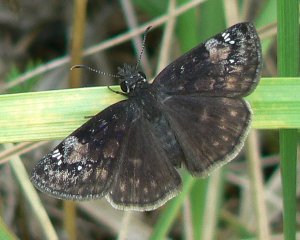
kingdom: Animalia
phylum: Arthropoda
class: Insecta
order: Lepidoptera
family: Hesperiidae
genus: Gesta
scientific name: Gesta
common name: Wild Indigo Duskywing
